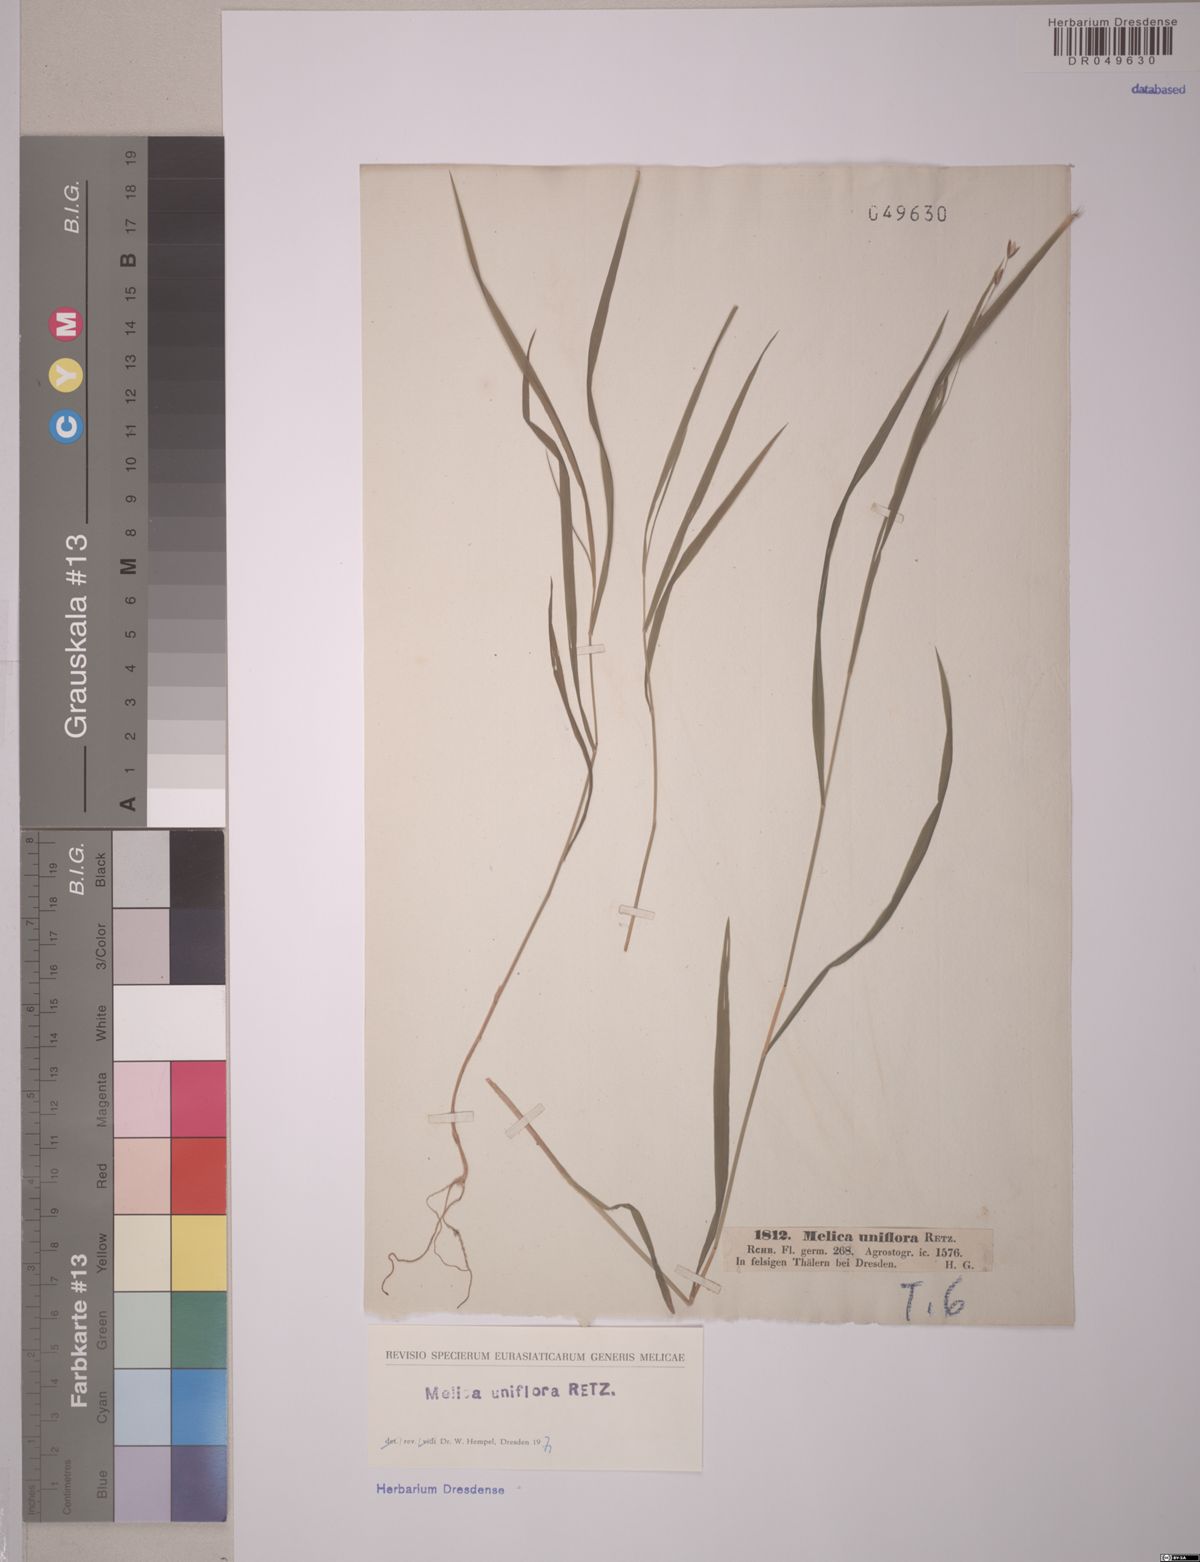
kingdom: Plantae
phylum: Tracheophyta
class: Liliopsida
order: Poales
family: Poaceae
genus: Melica
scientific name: Melica uniflora
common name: Wood melick
